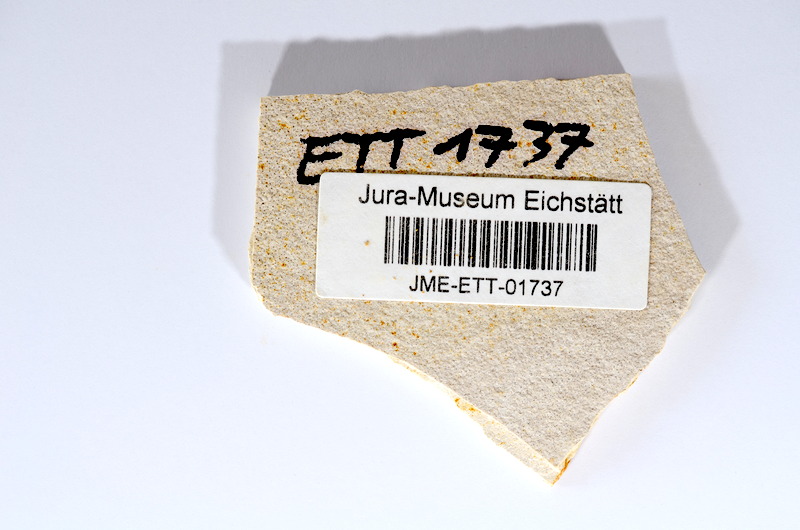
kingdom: Animalia
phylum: Chordata
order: Salmoniformes
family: Orthogonikleithridae
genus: Orthogonikleithrus
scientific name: Orthogonikleithrus hoelli
